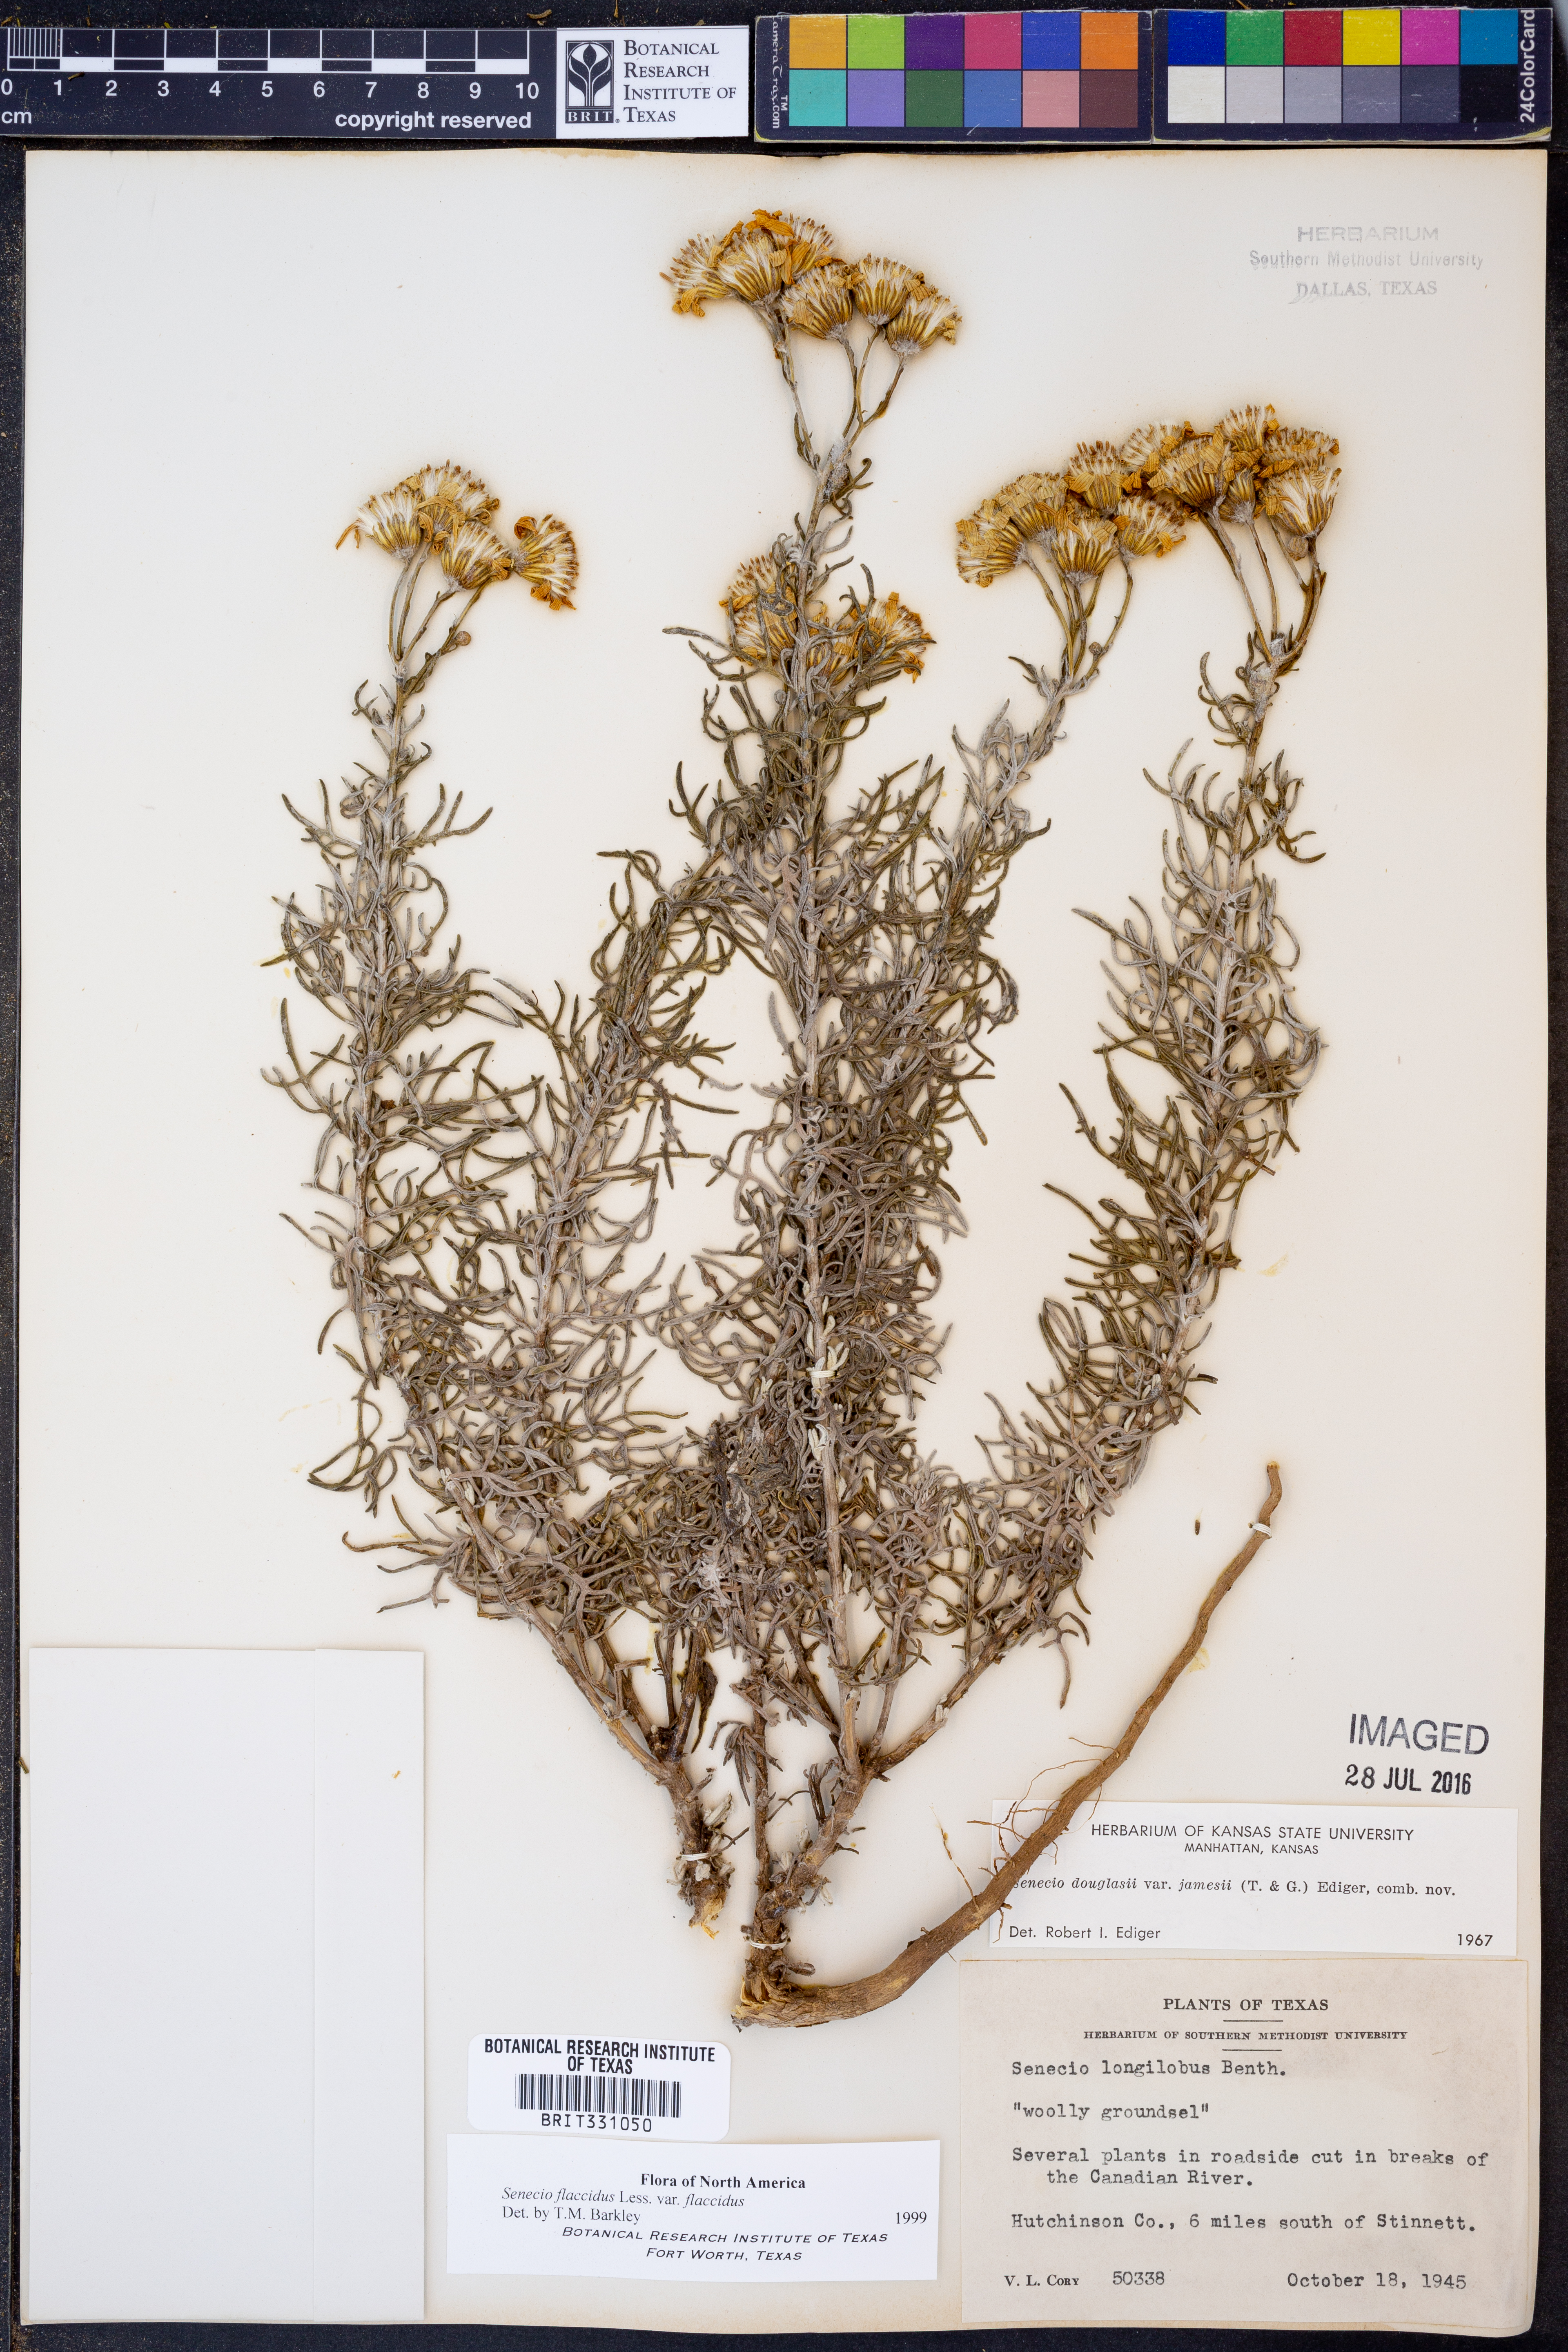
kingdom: Plantae
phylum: Tracheophyta
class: Magnoliopsida
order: Asterales
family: Asteraceae
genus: Senecio
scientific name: Senecio flaccidus
